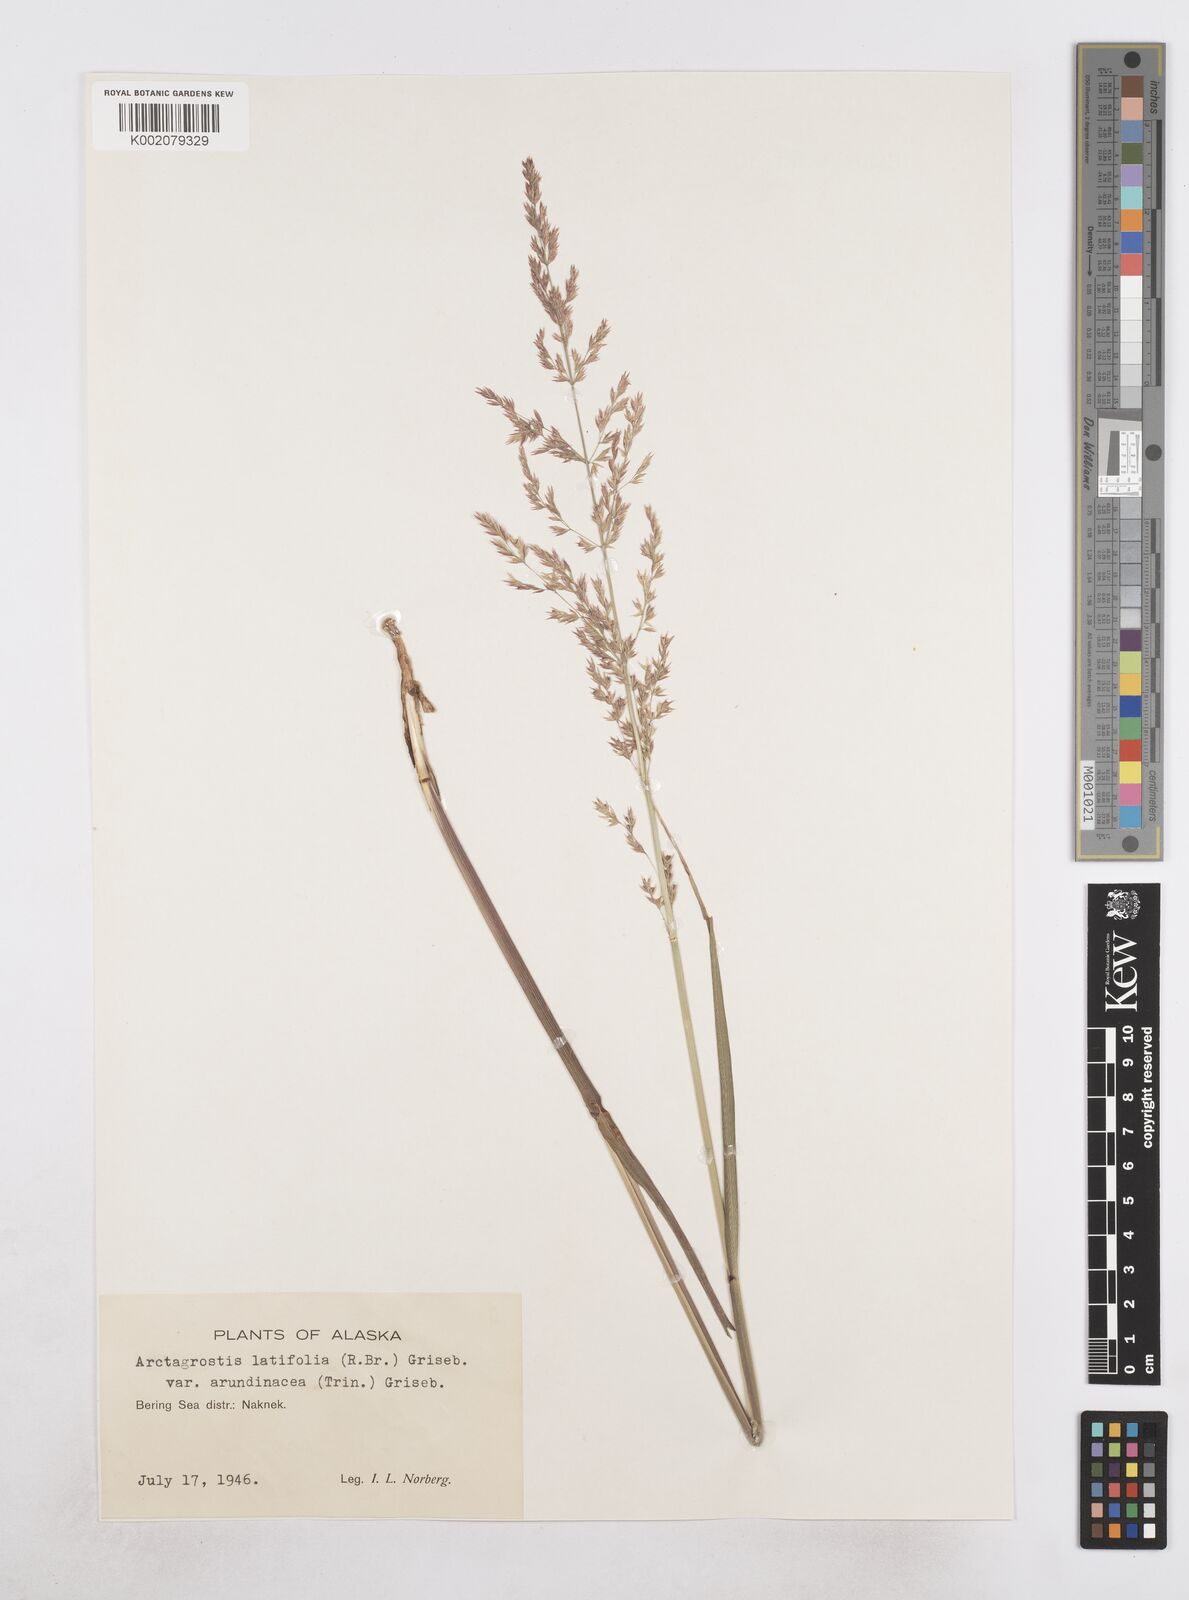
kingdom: Plantae
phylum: Tracheophyta
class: Liliopsida
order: Poales
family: Poaceae
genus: Arctagrostis
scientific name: Arctagrostis arundinacea
